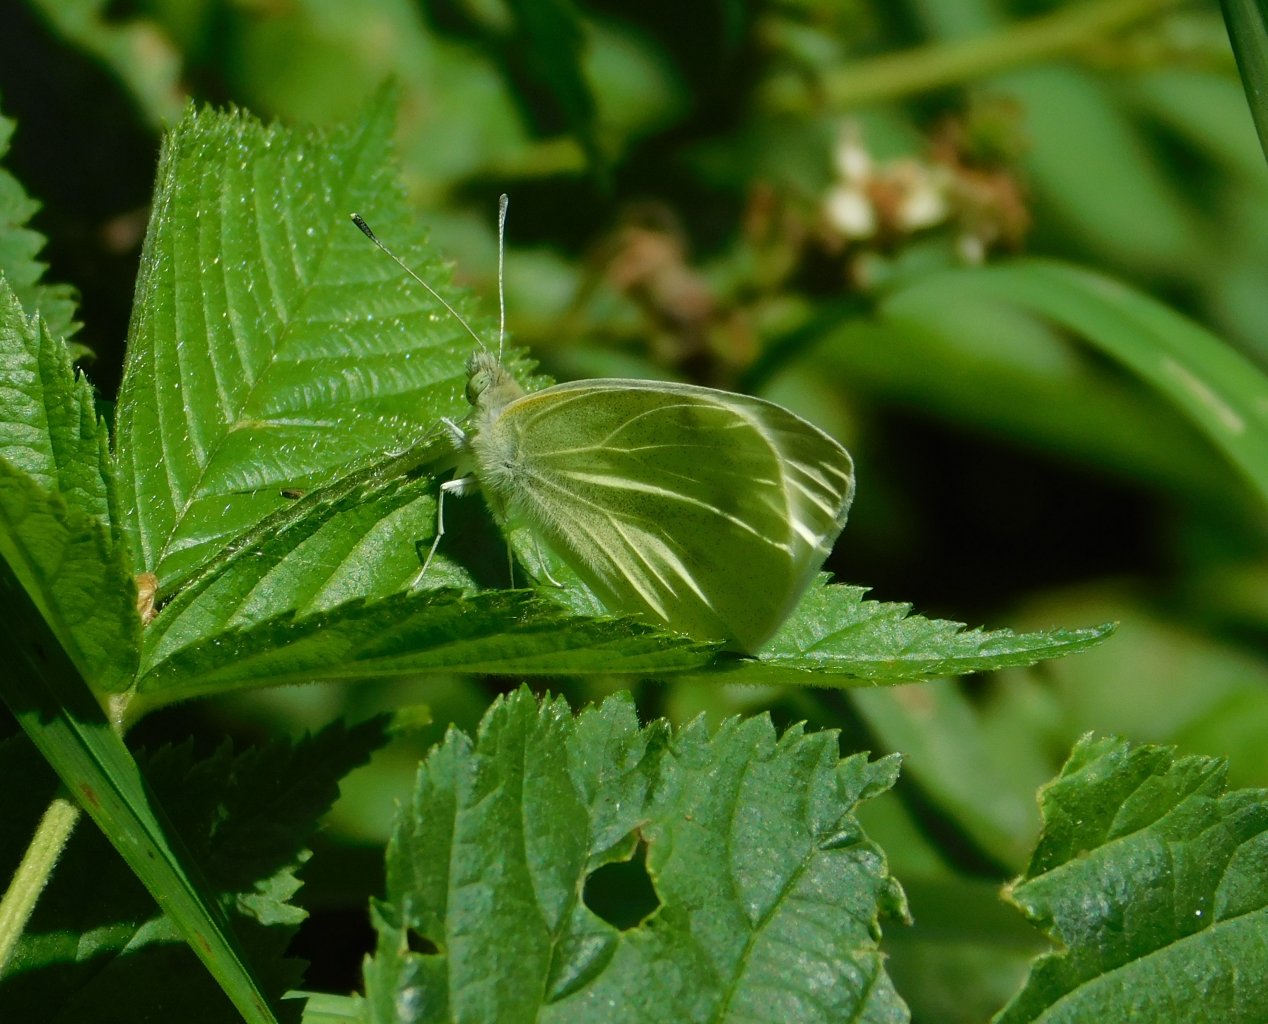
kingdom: Animalia
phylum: Arthropoda
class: Insecta
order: Lepidoptera
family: Pieridae
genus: Pieris
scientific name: Pieris rapae
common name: Cabbage White
